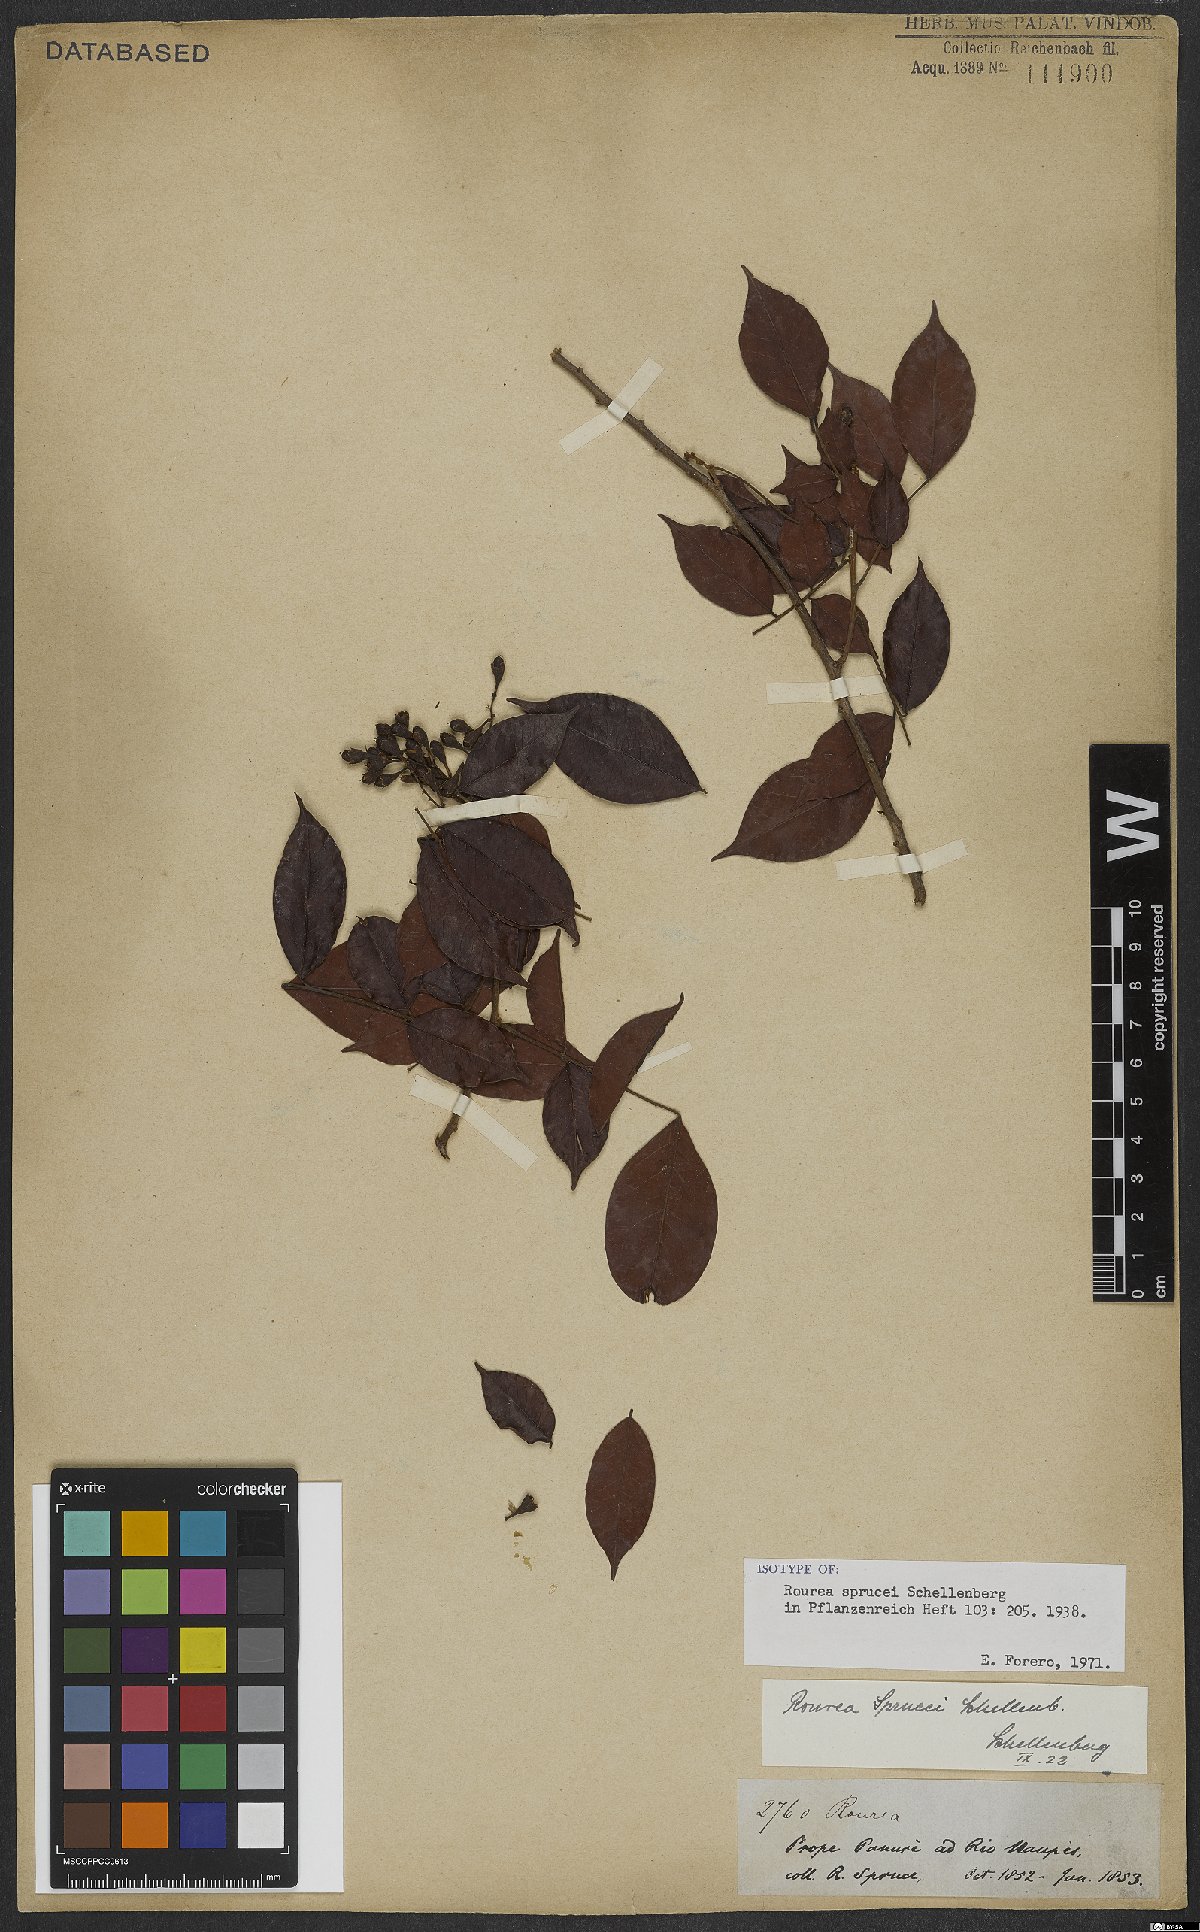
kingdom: Plantae
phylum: Tracheophyta
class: Magnoliopsida
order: Oxalidales
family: Connaraceae
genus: Rourea
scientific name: Rourea sprucei
